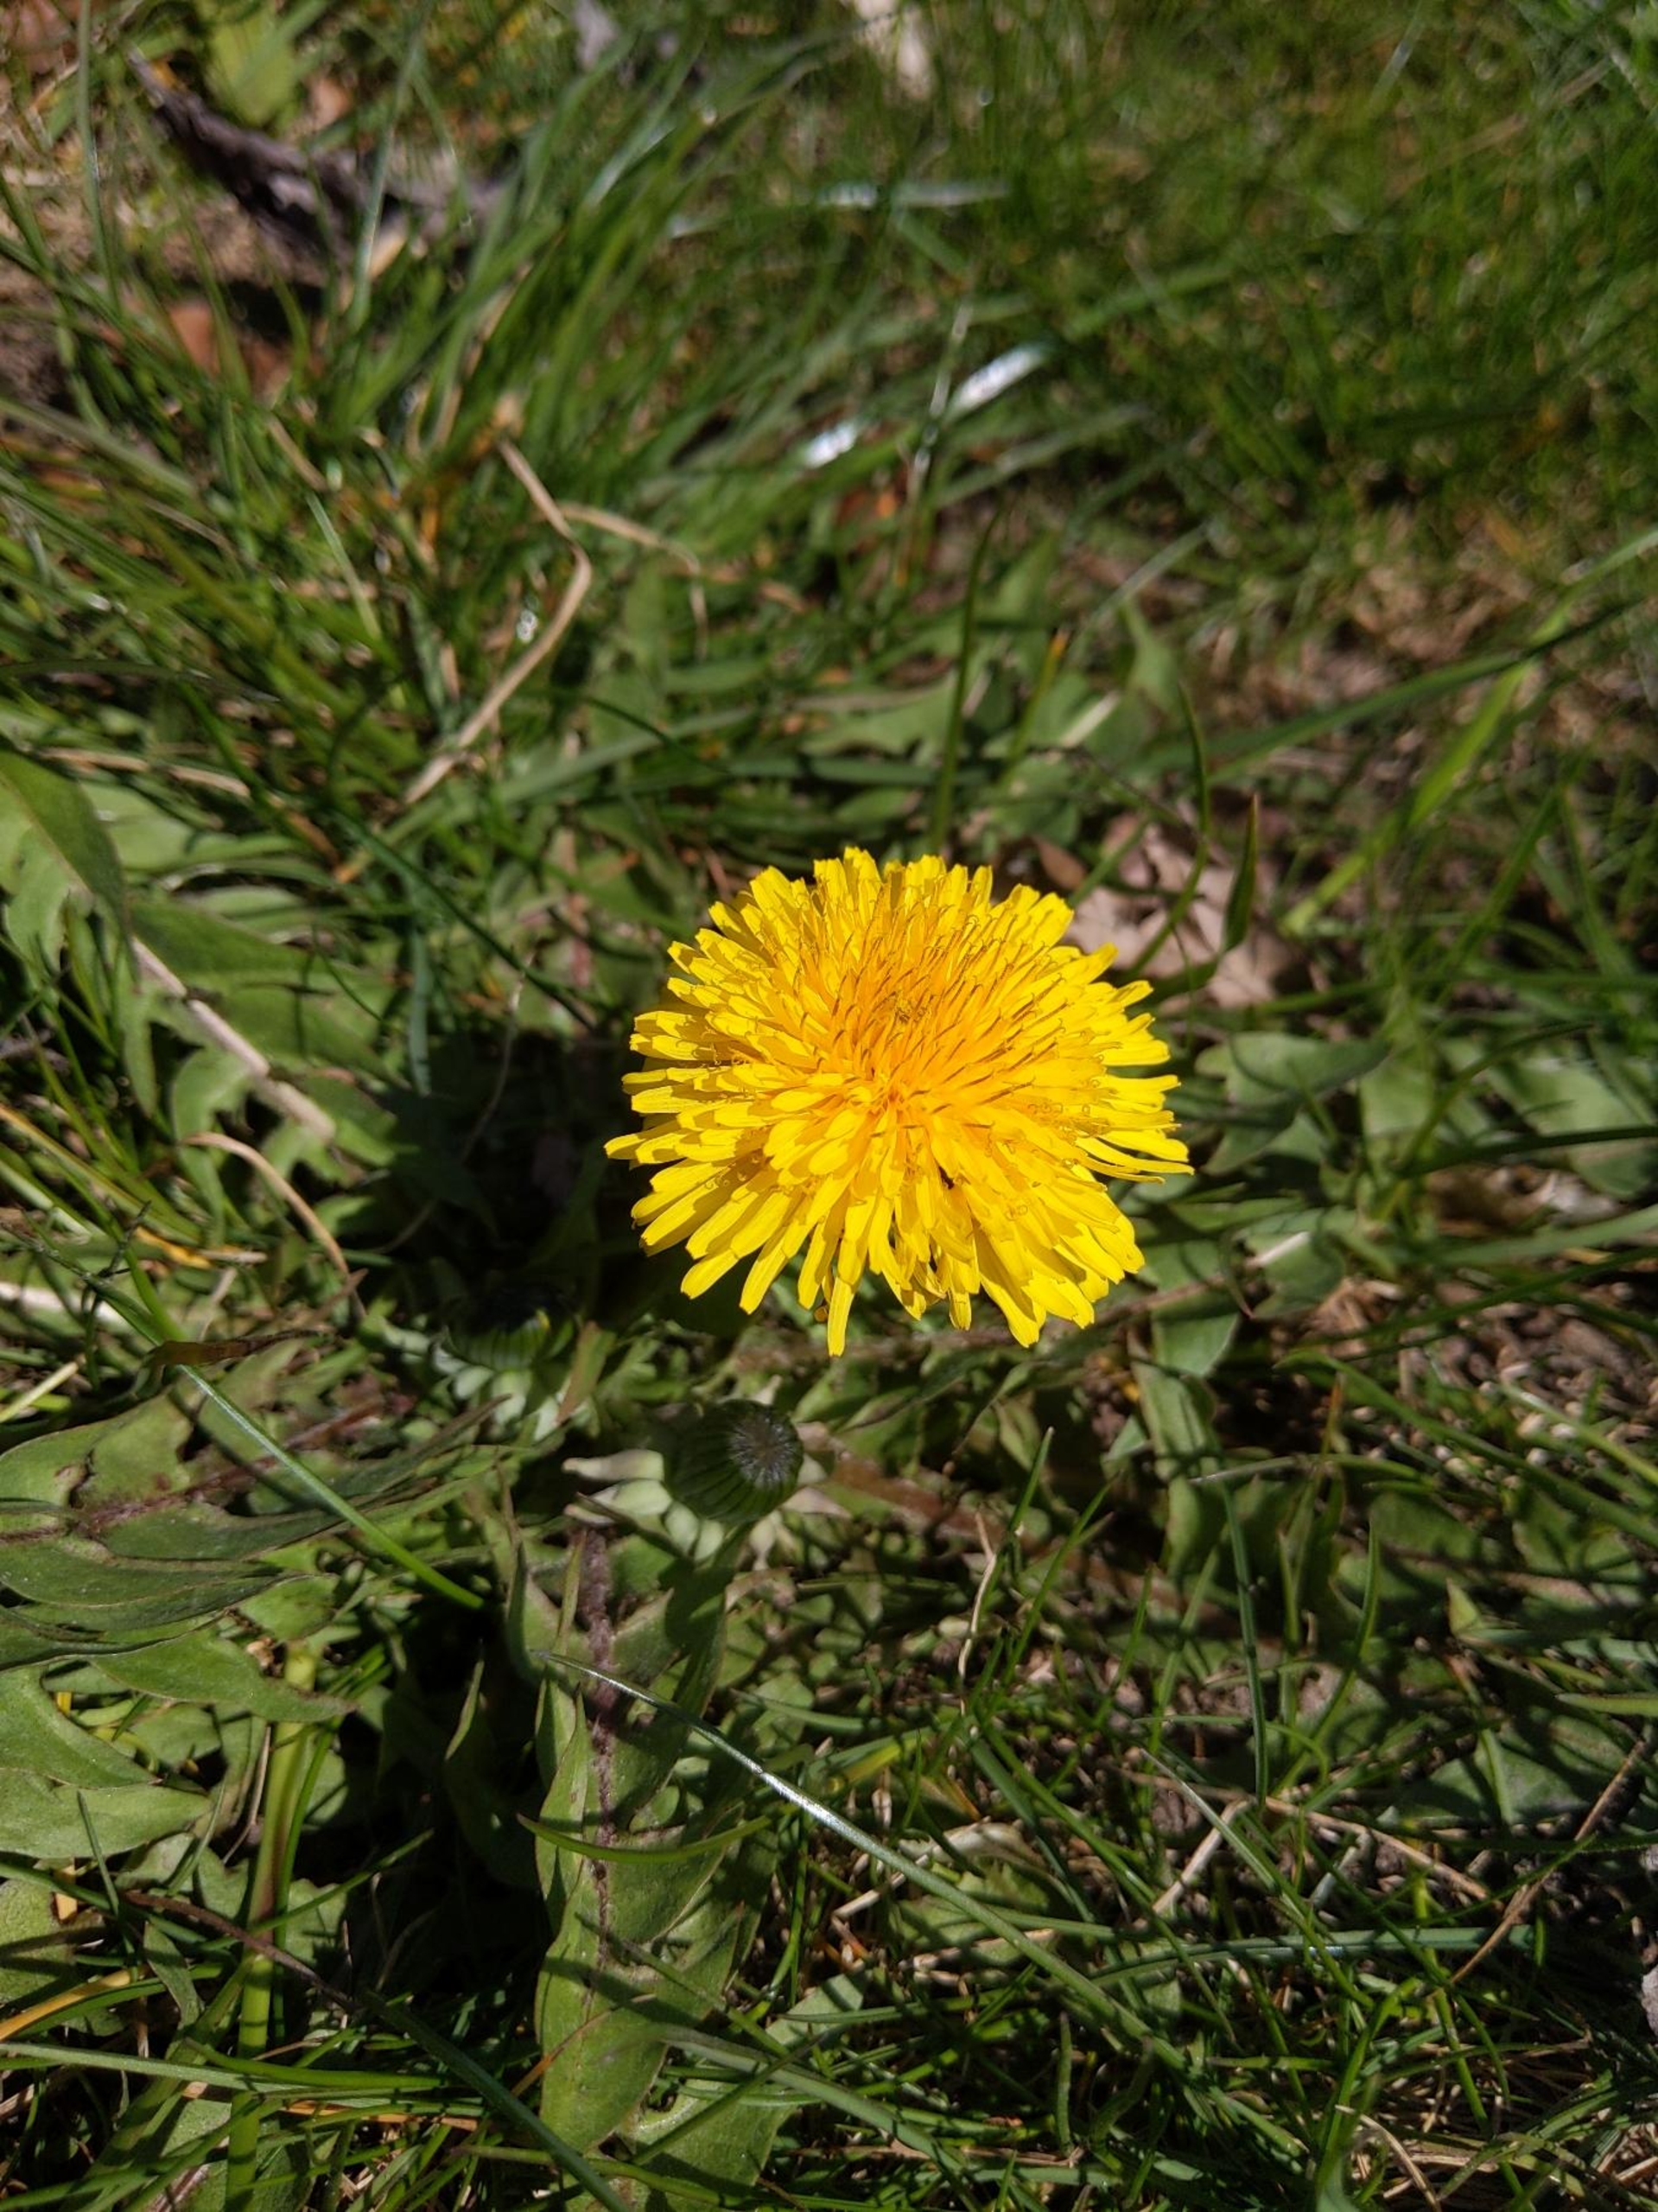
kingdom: Plantae
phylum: Tracheophyta
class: Magnoliopsida
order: Asterales
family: Asteraceae
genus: Taraxacum
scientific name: Taraxacum
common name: Mælkebøtteslægten
